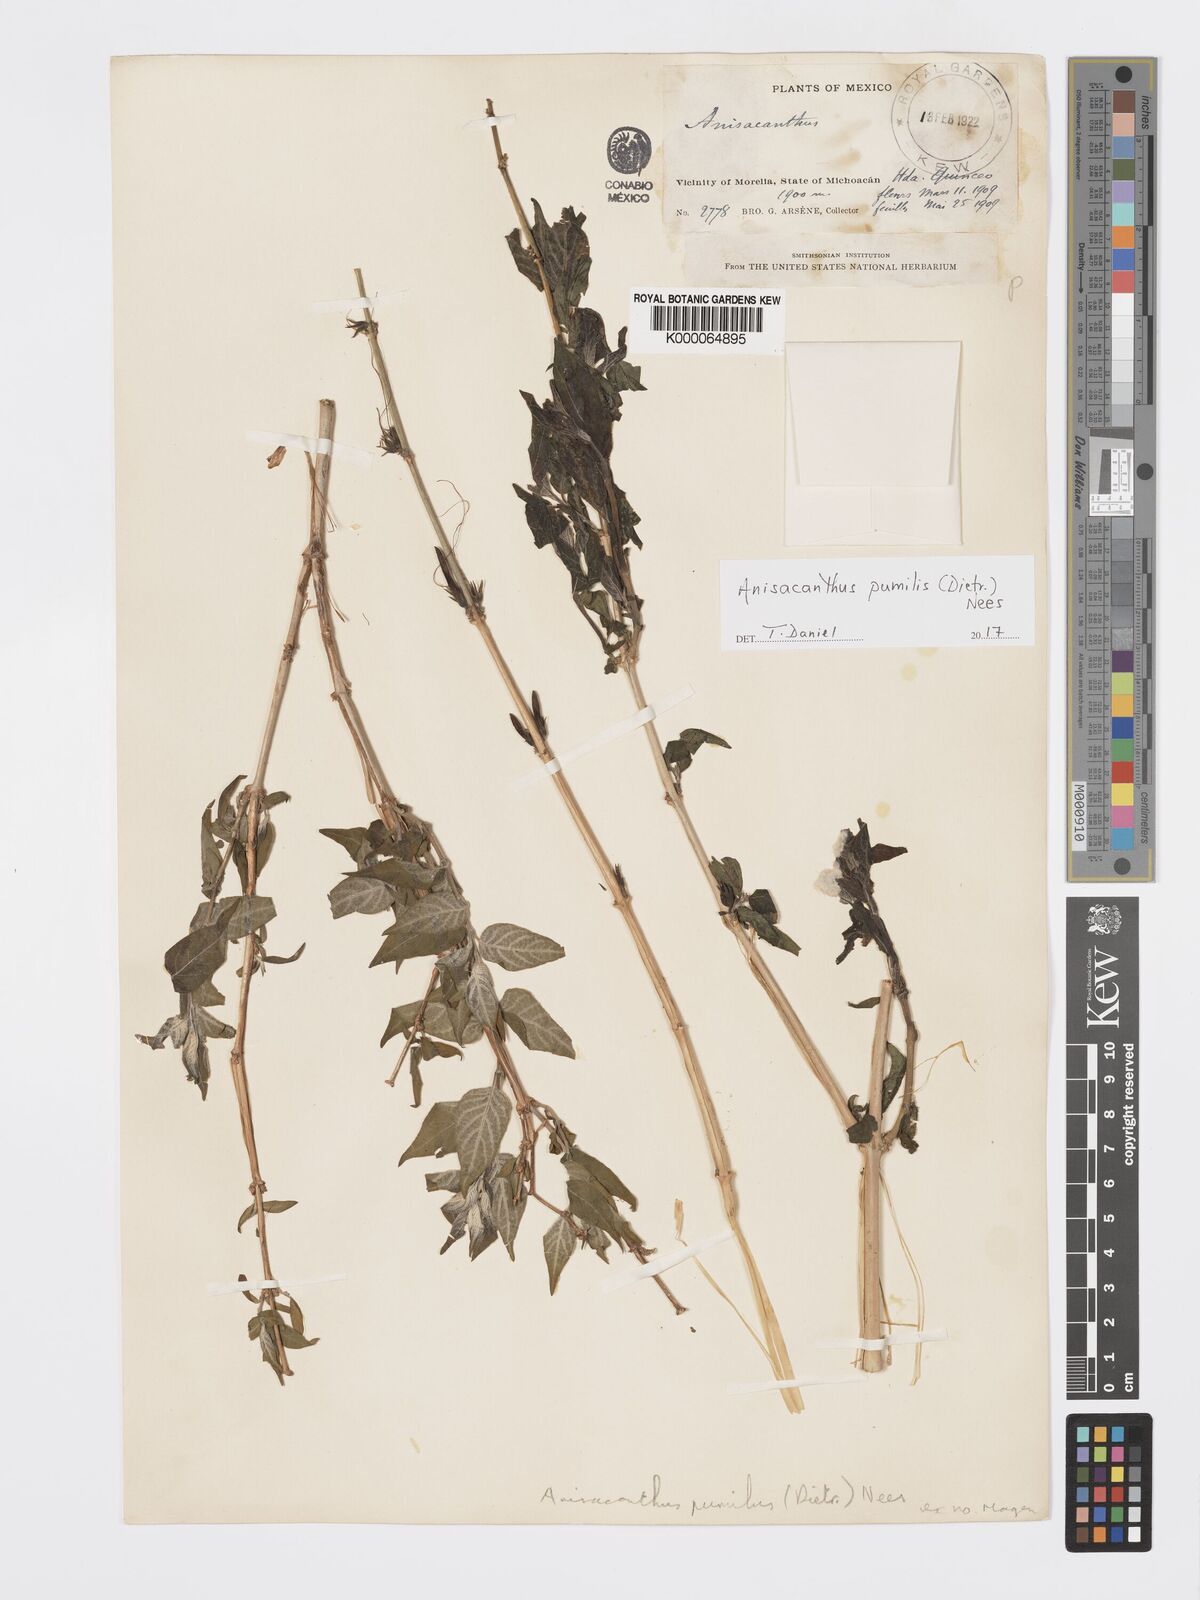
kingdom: Plantae
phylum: Tracheophyta
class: Magnoliopsida
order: Lamiales
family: Acanthaceae
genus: Anisacanthus
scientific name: Anisacanthus pumilus
